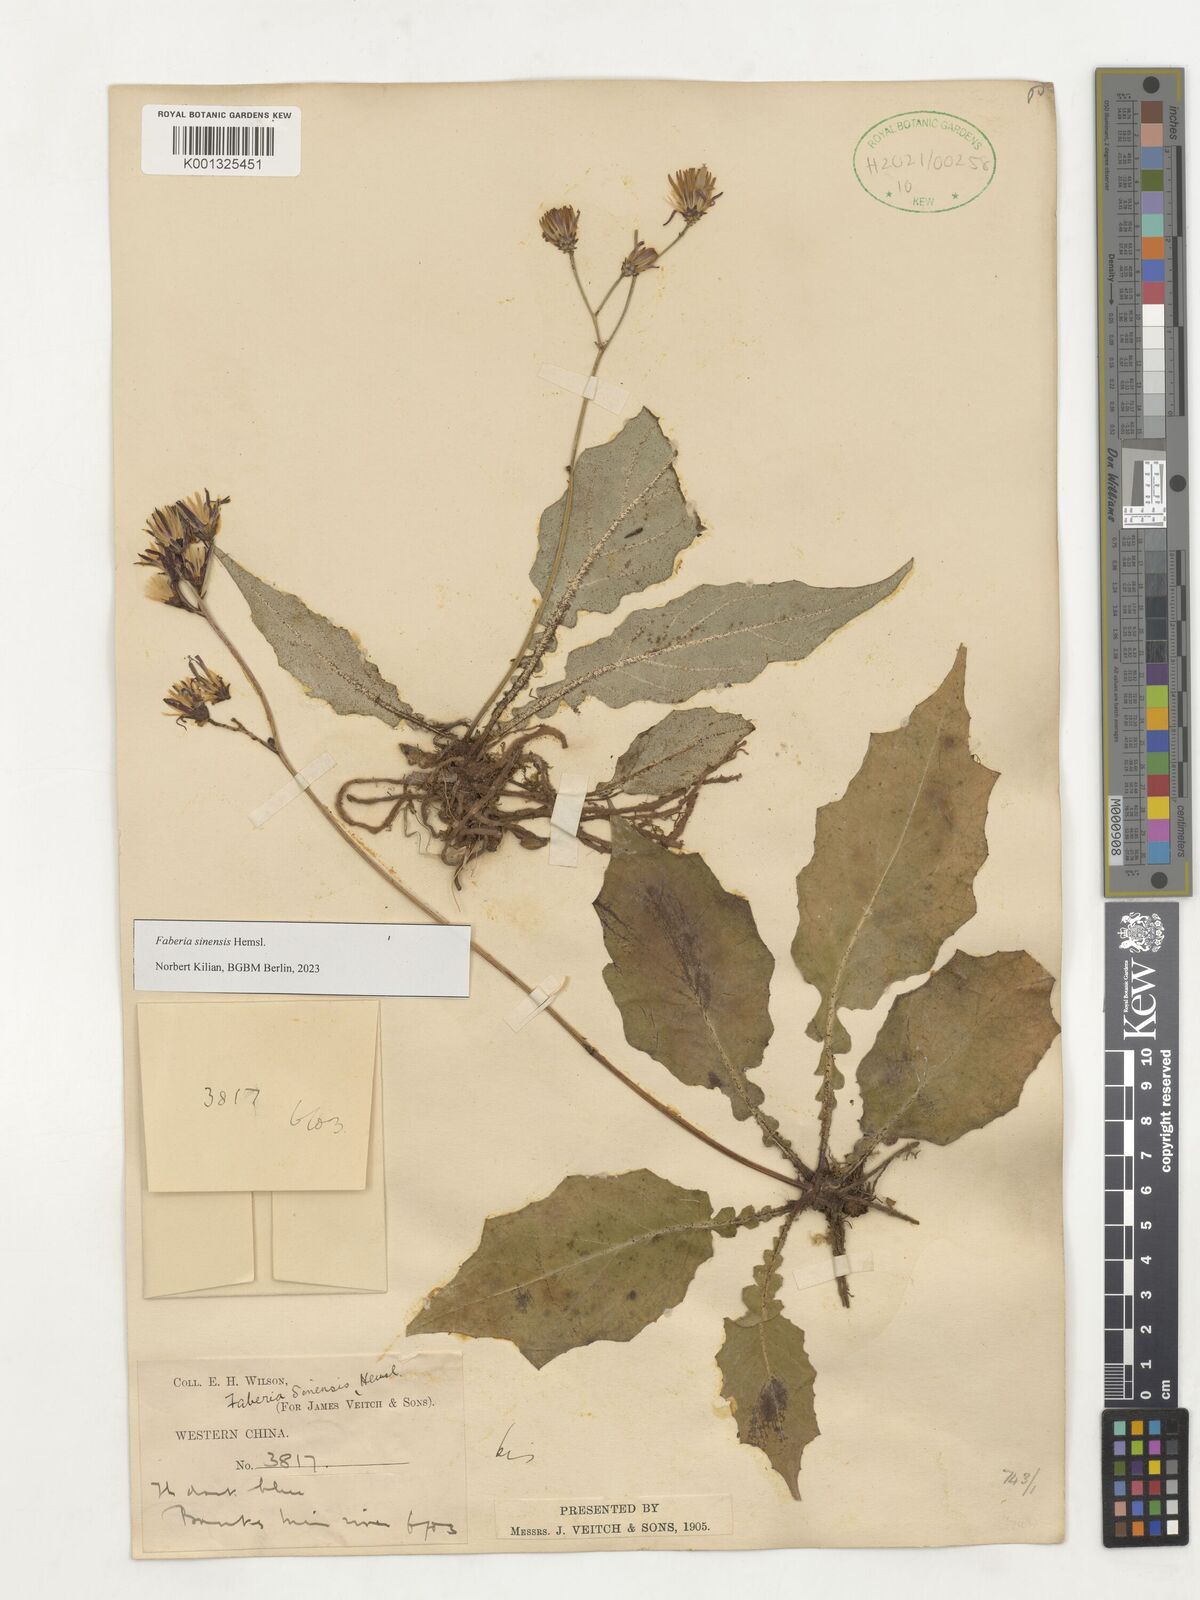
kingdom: Plantae
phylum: Tracheophyta
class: Magnoliopsida
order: Asterales
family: Asteraceae
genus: Faberia
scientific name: Faberia sinensis
